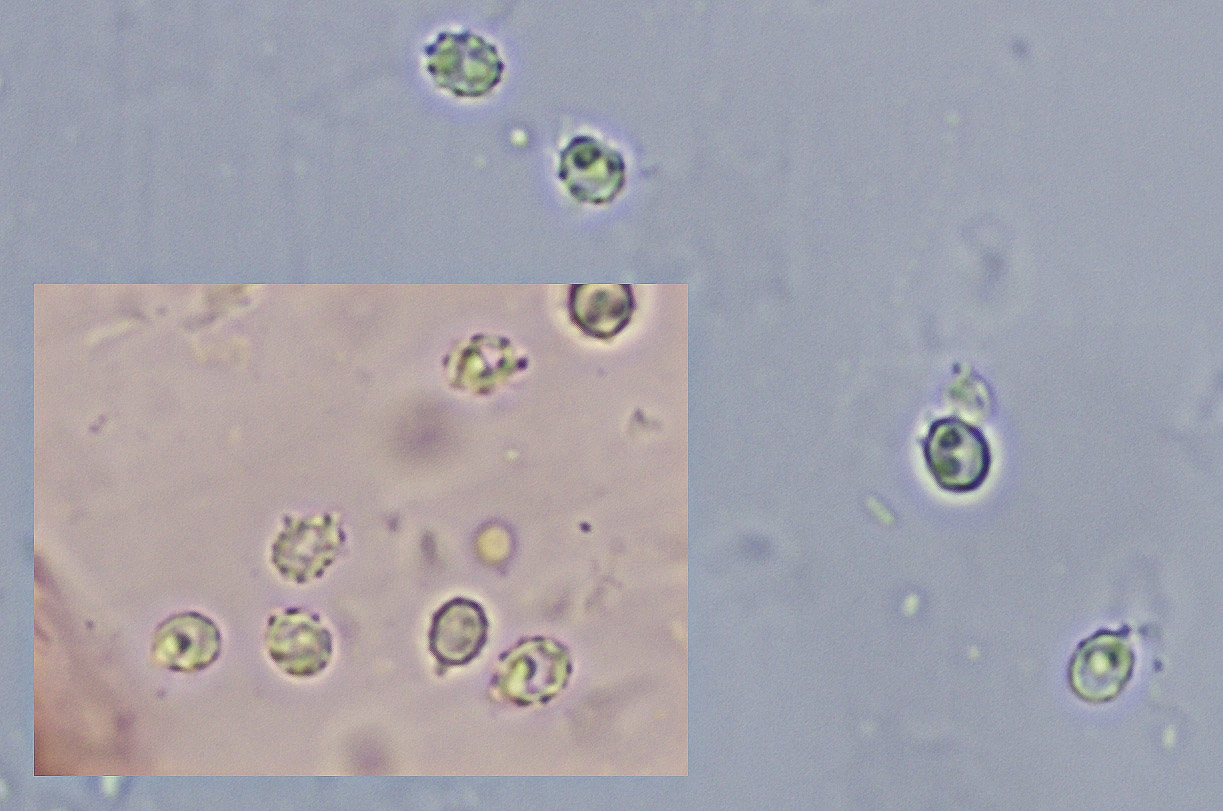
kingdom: Fungi
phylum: Basidiomycota
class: Agaricomycetes
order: Trechisporales
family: Sistotremataceae
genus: Trechispora
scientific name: Trechispora
